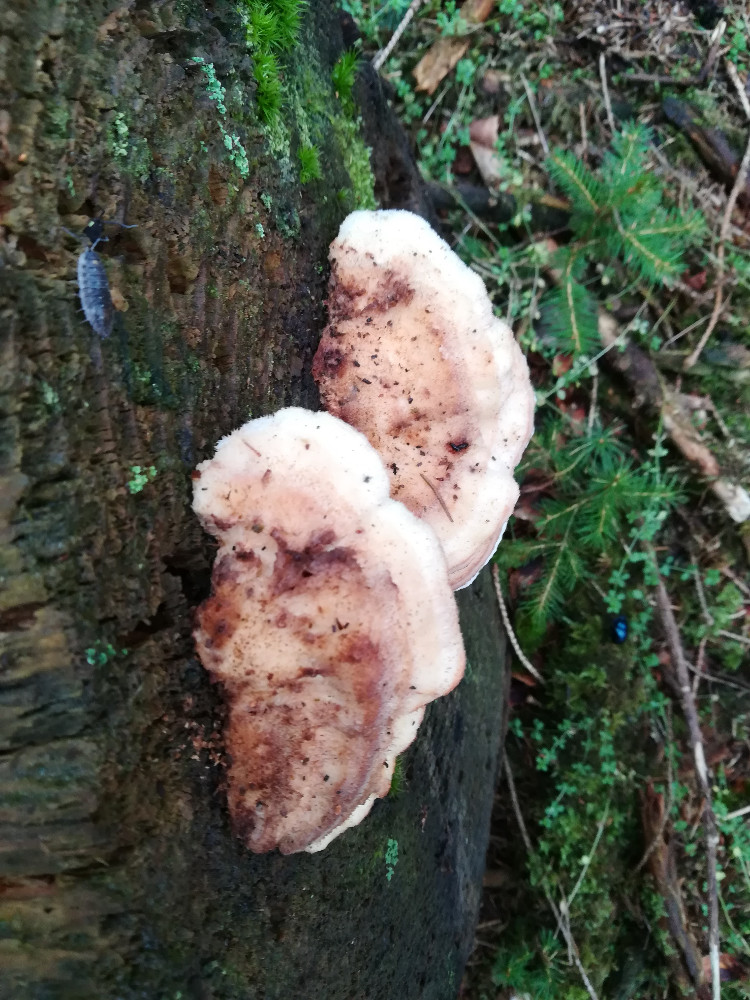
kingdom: Fungi
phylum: Basidiomycota
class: Agaricomycetes
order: Polyporales
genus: Fuscopostia
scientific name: Fuscopostia fragilis
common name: brunende kødporesvamp
